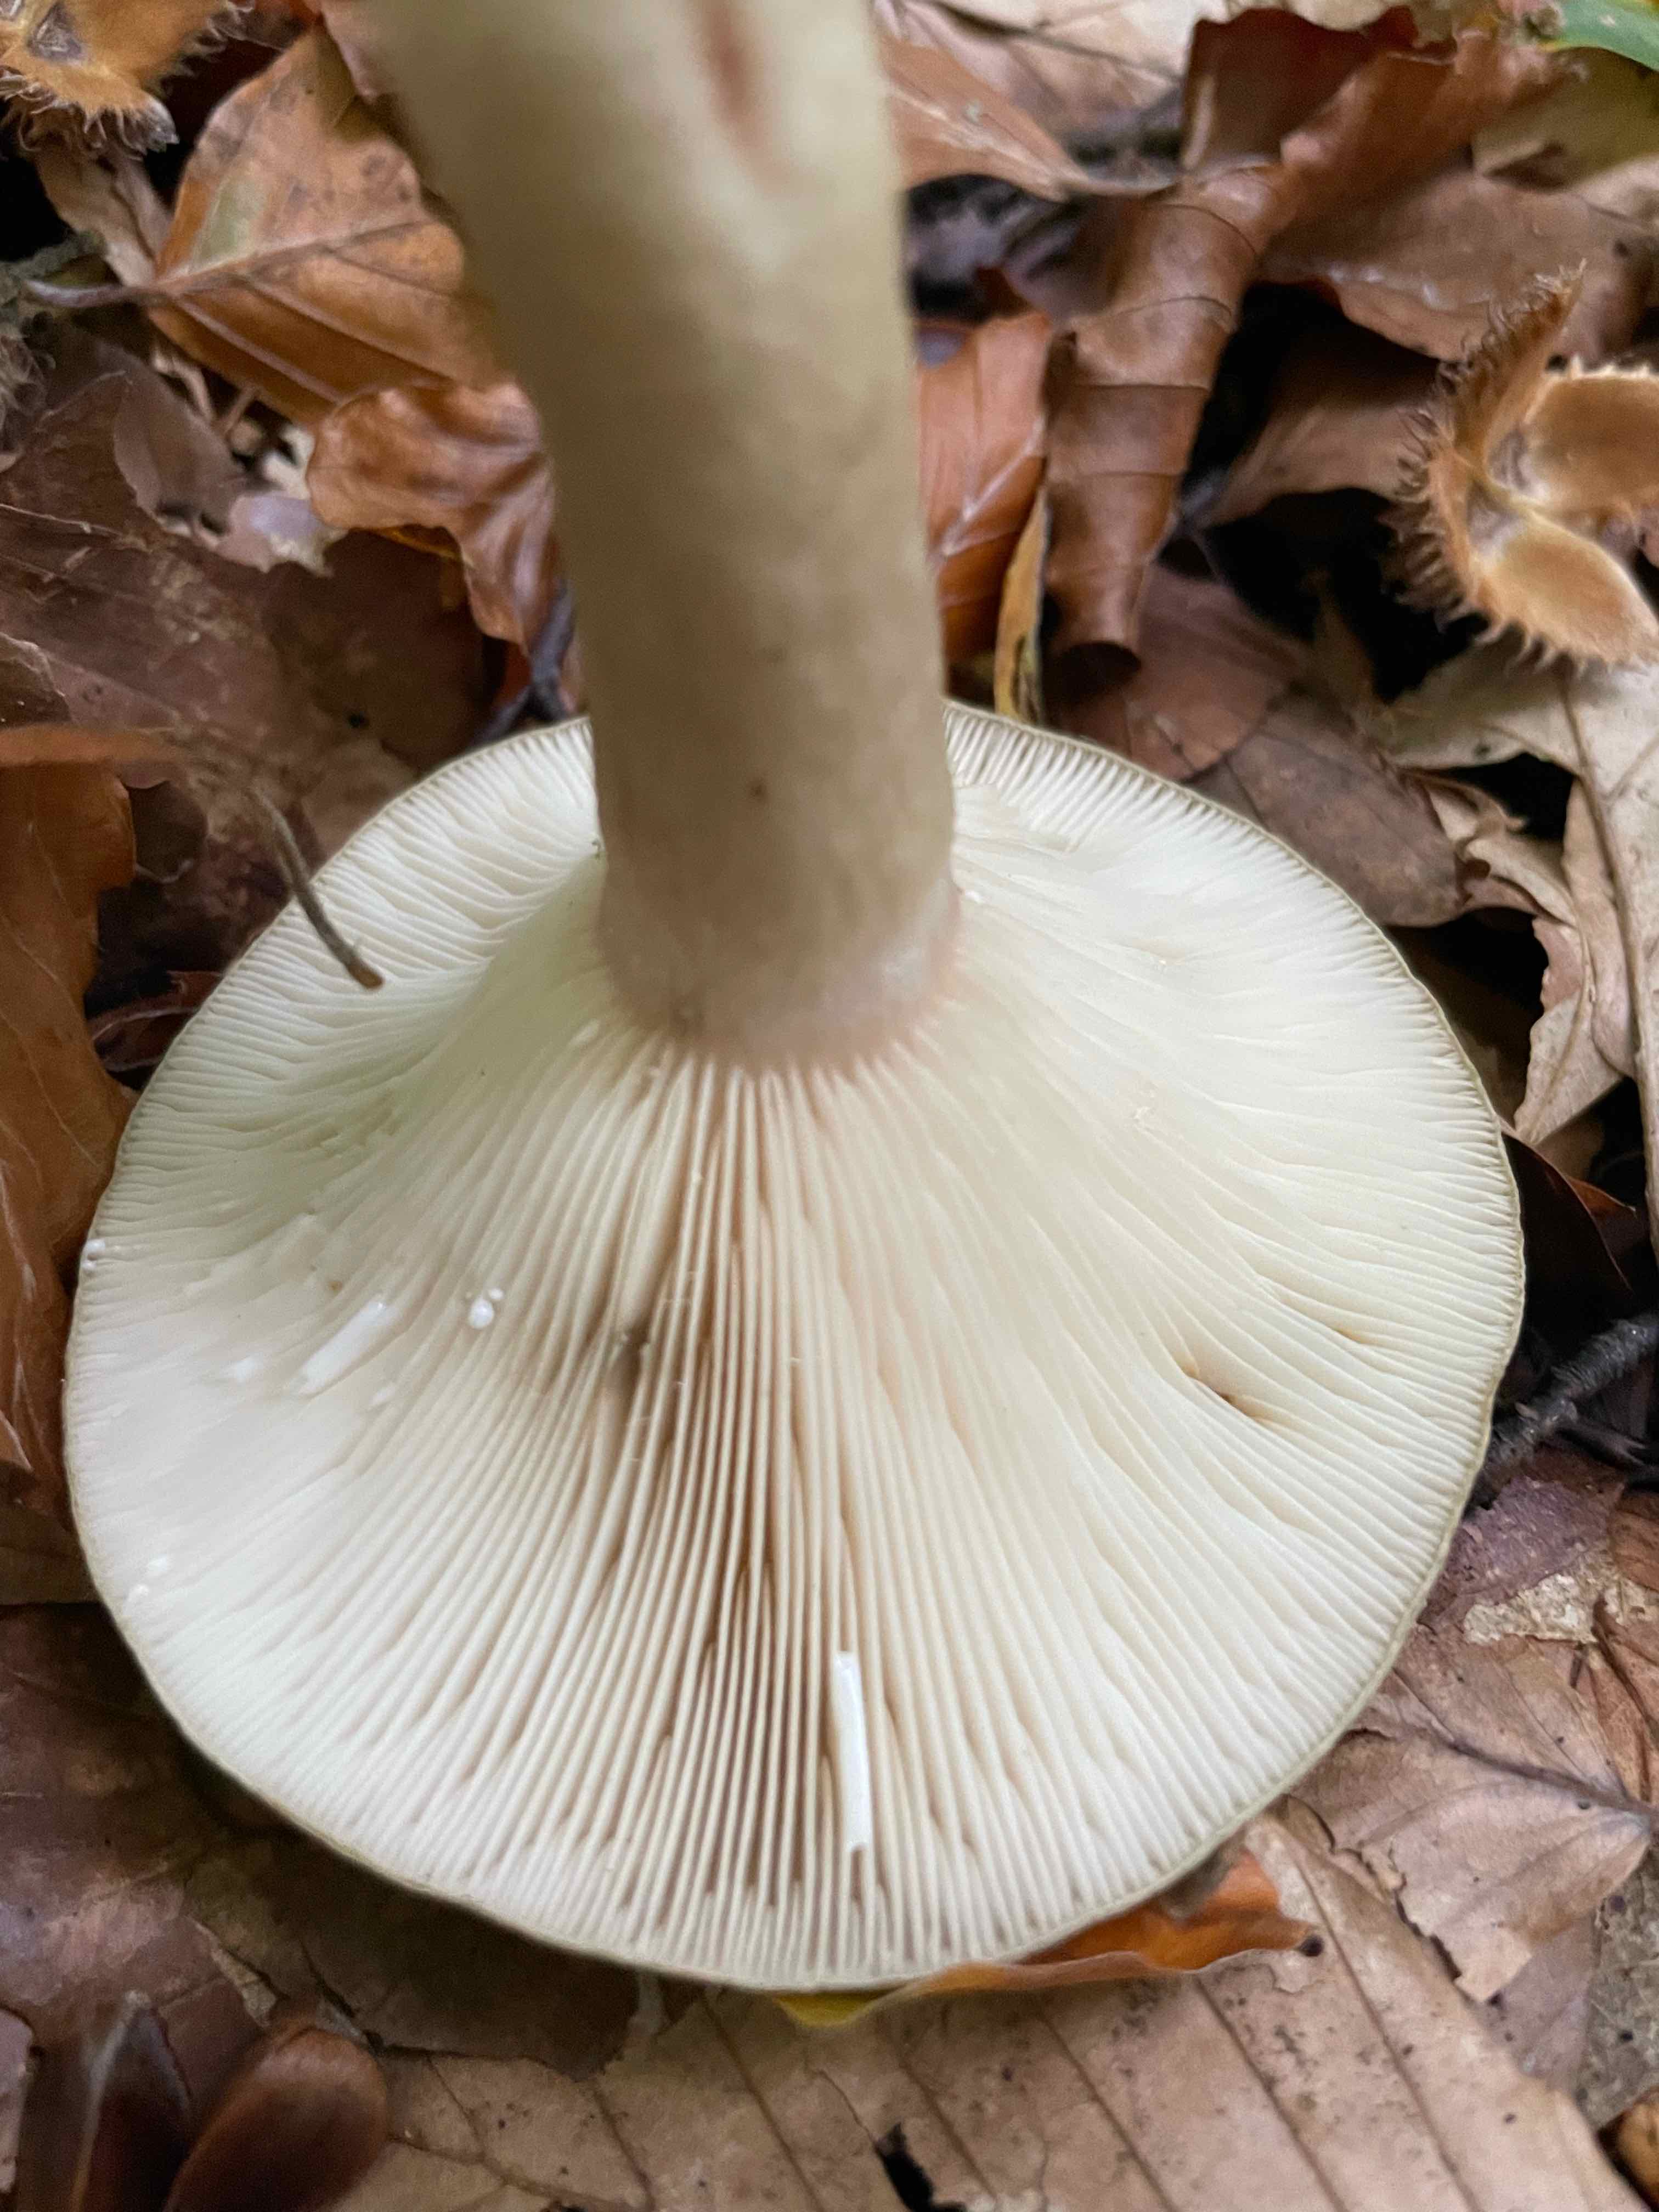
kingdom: Fungi
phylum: Basidiomycota
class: Agaricomycetes
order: Russulales
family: Russulaceae
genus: Lactarius
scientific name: Lactarius blennius
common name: dråbeplettet mælkehat
